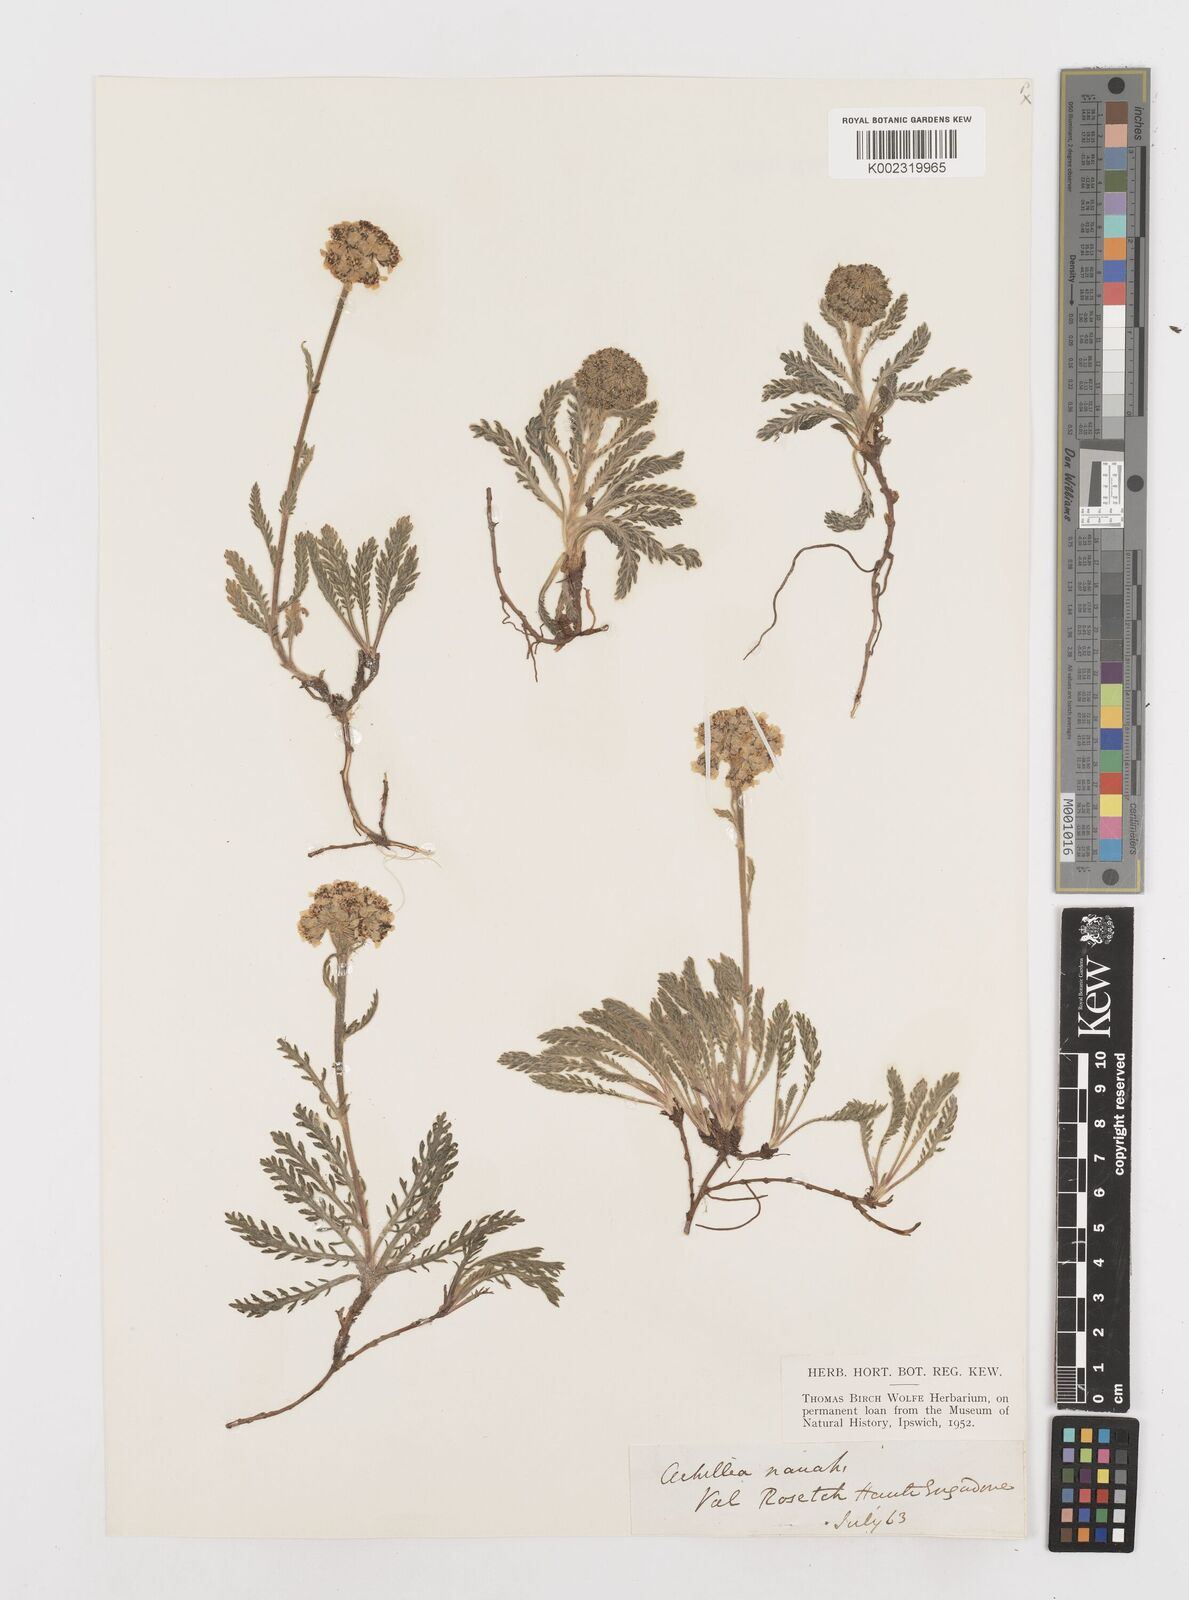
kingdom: Plantae
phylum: Tracheophyta
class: Magnoliopsida
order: Asterales
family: Asteraceae
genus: Achillea
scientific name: Achillea erba-rotta
